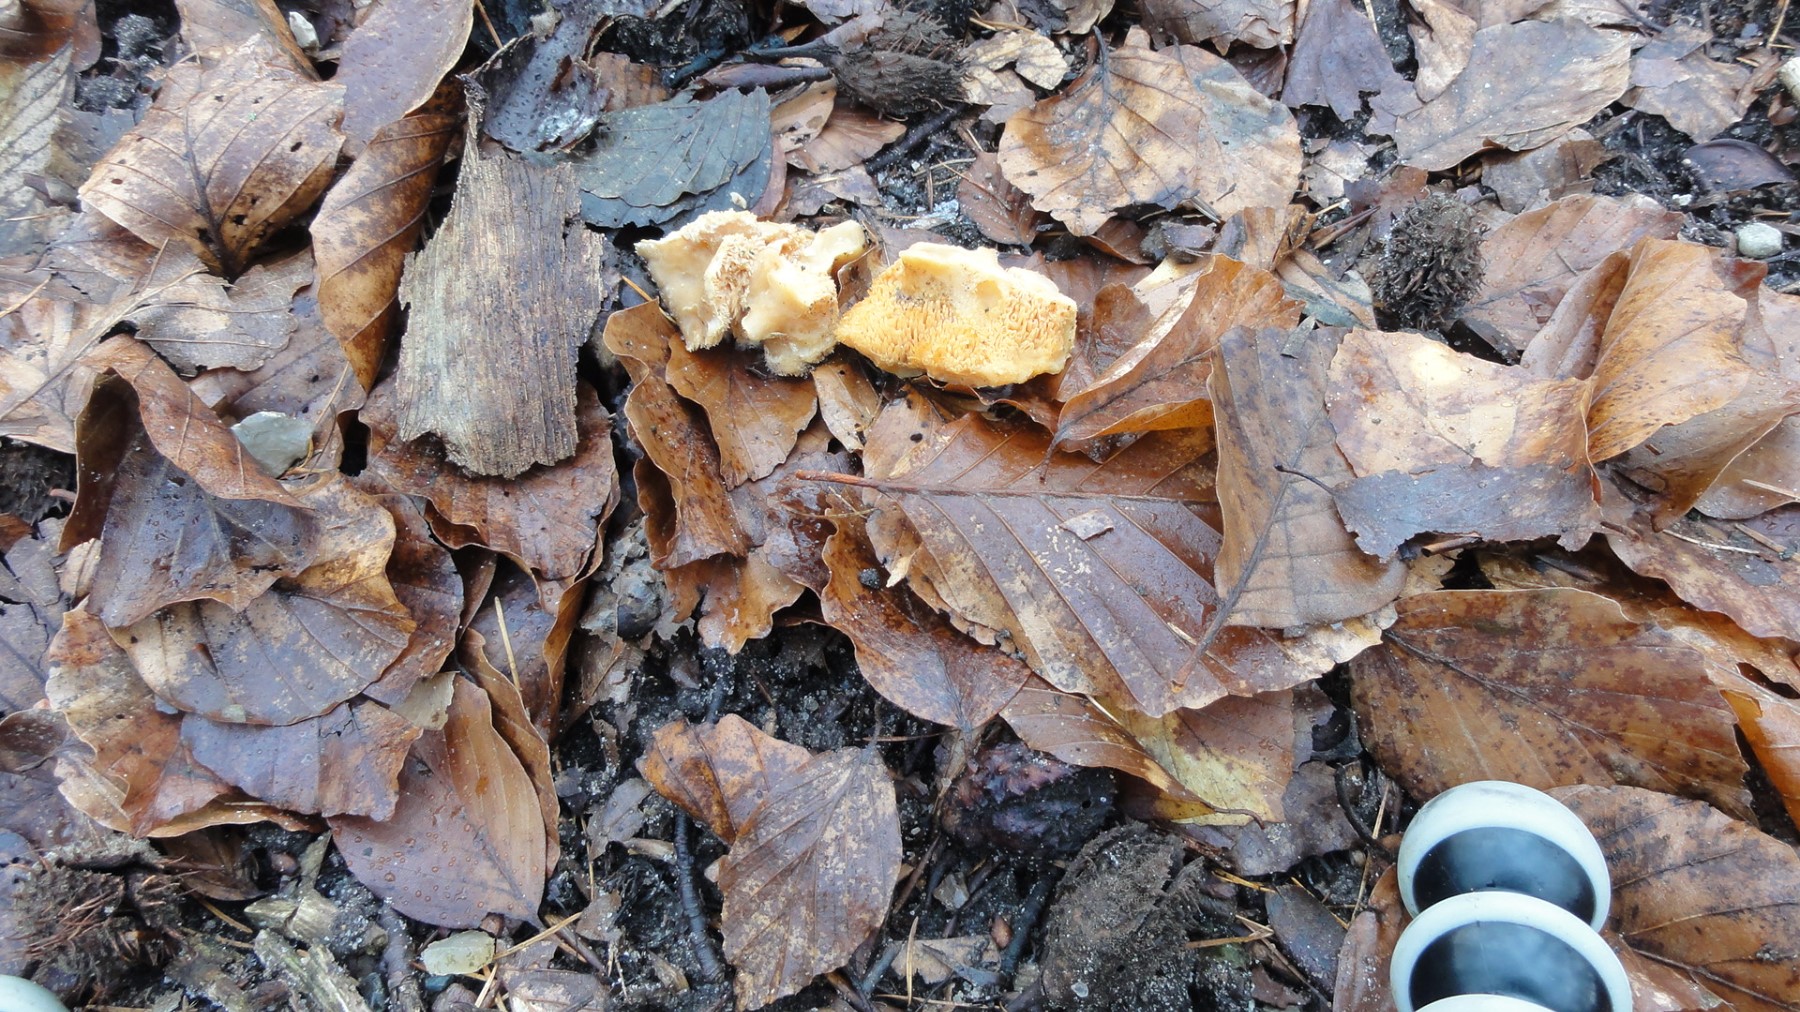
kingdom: Fungi
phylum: Basidiomycota
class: Agaricomycetes
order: Cantharellales
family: Hydnaceae
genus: Hydnum
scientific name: Hydnum
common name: pigsvamp
